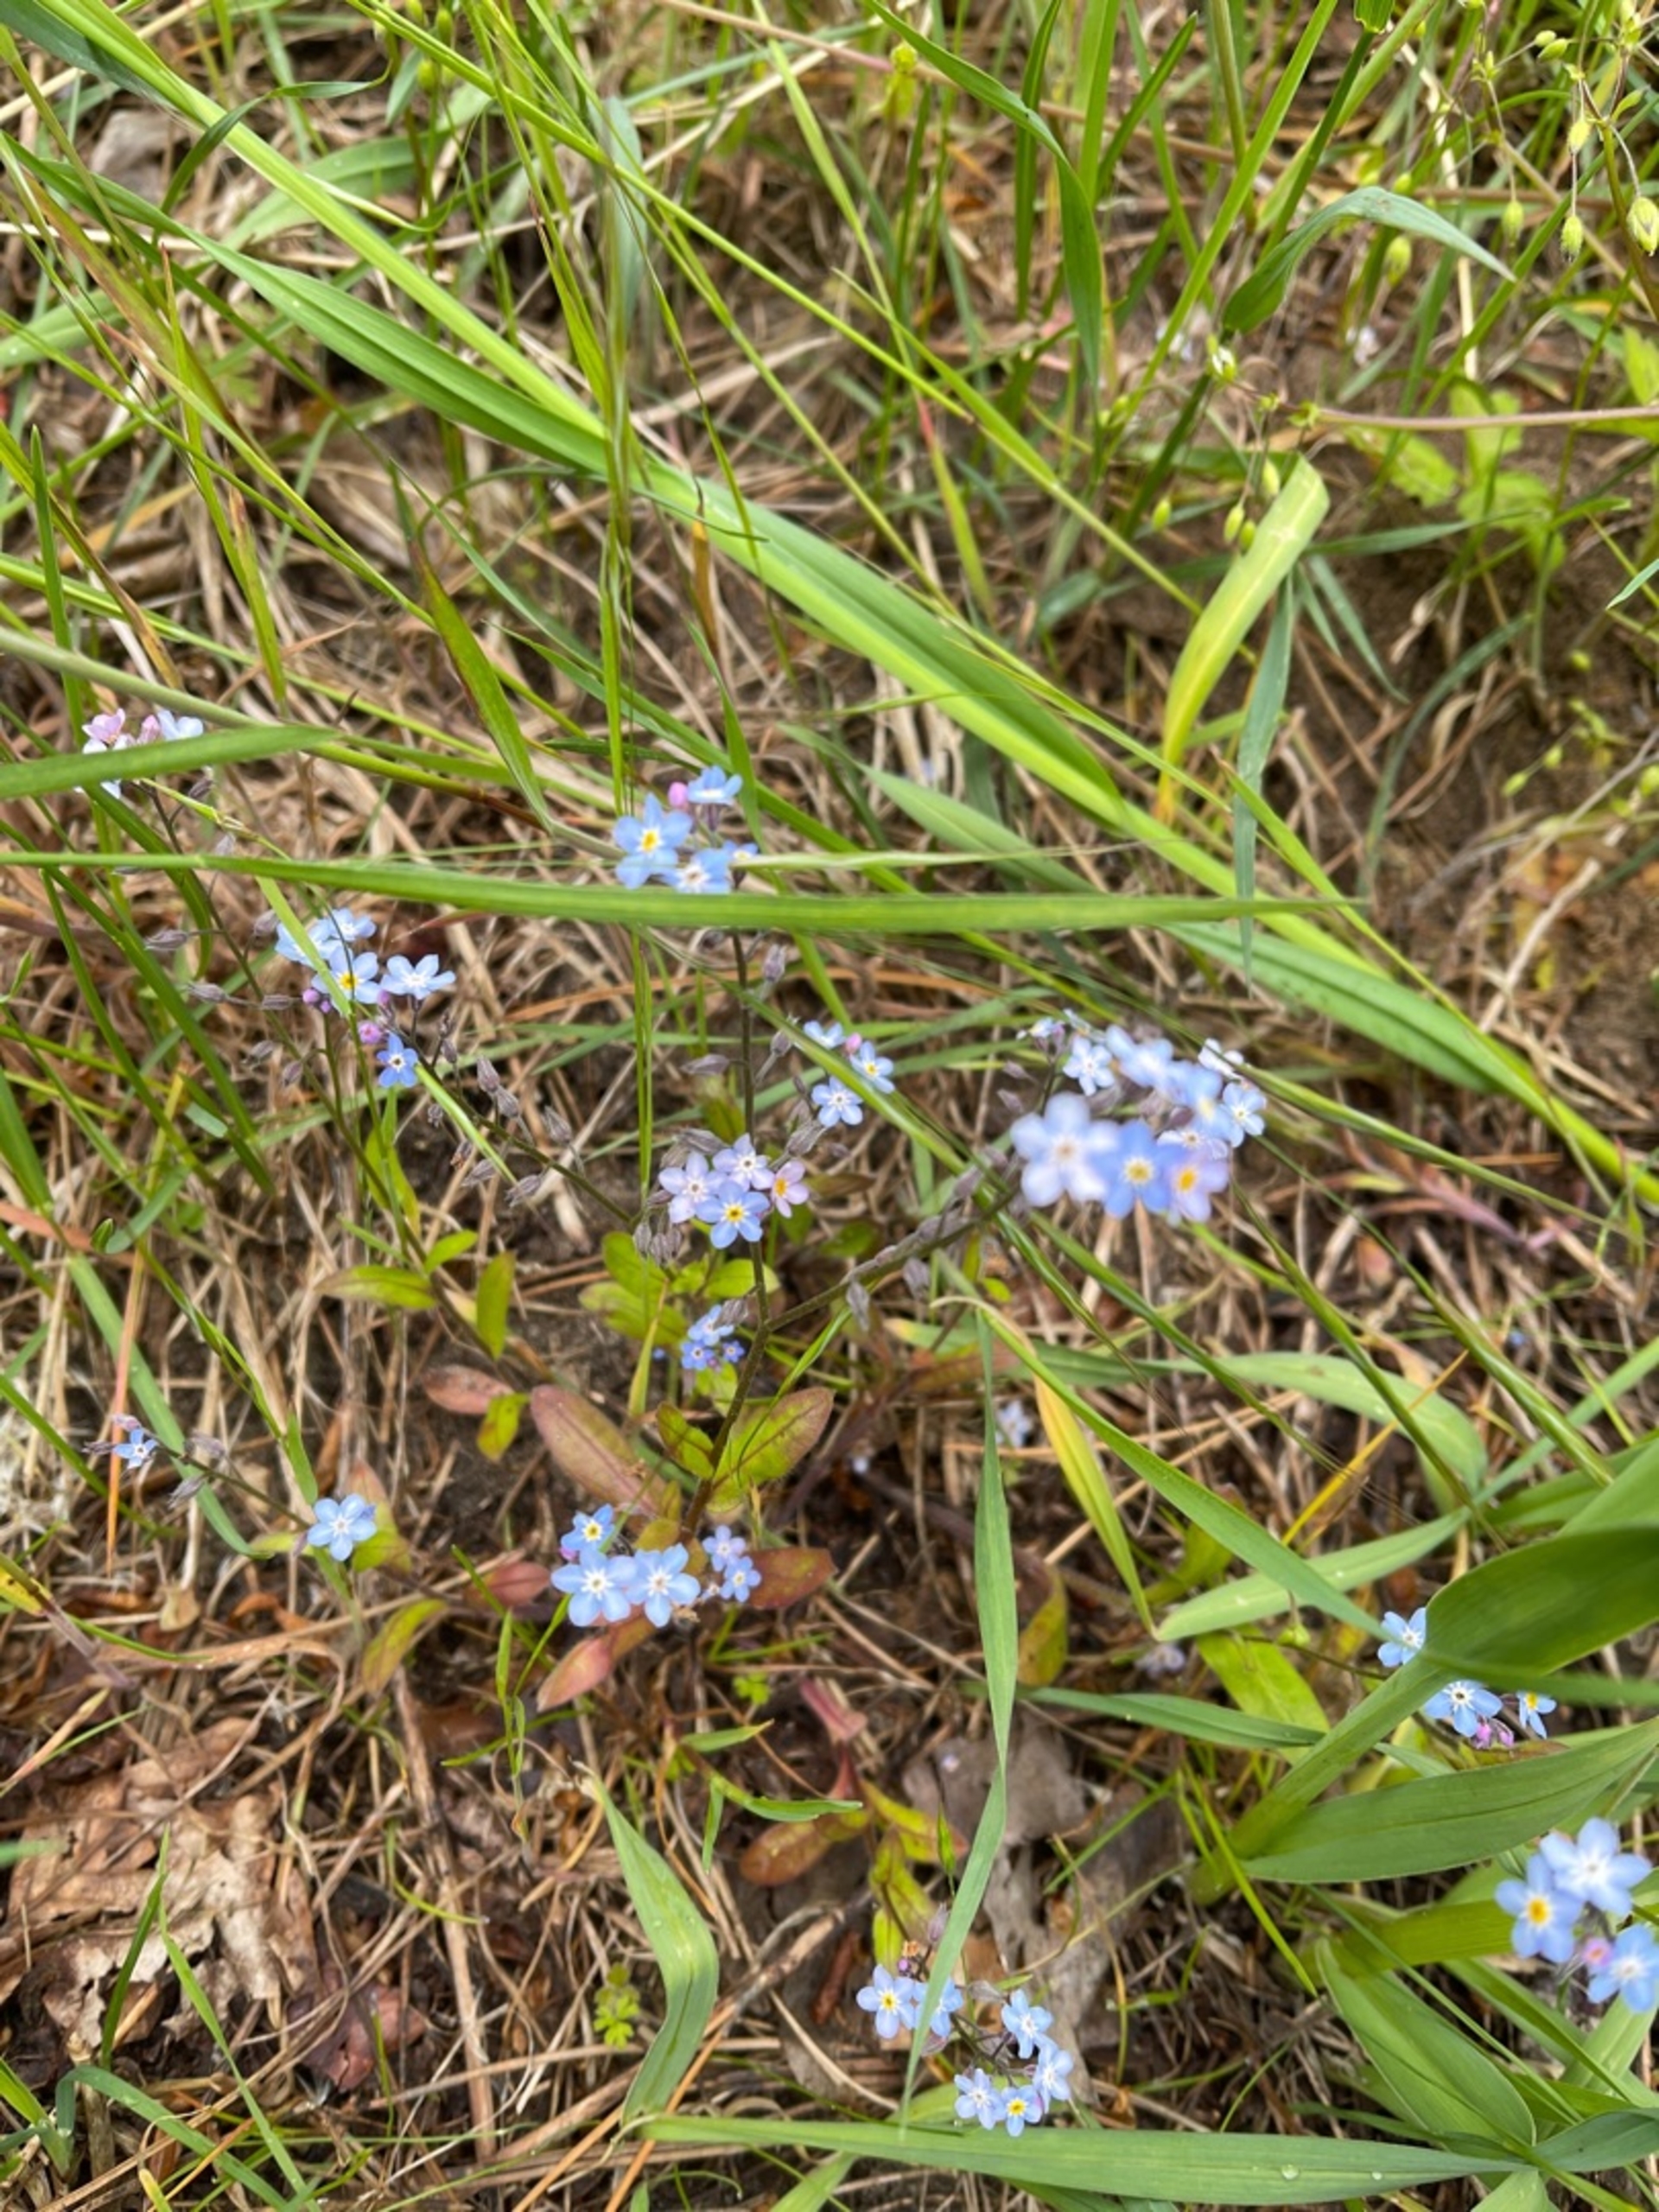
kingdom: Plantae
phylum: Tracheophyta
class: Magnoliopsida
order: Boraginales
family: Boraginaceae
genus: Myosotis
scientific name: Myosotis sylvatica
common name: Skov-forglemmigej
